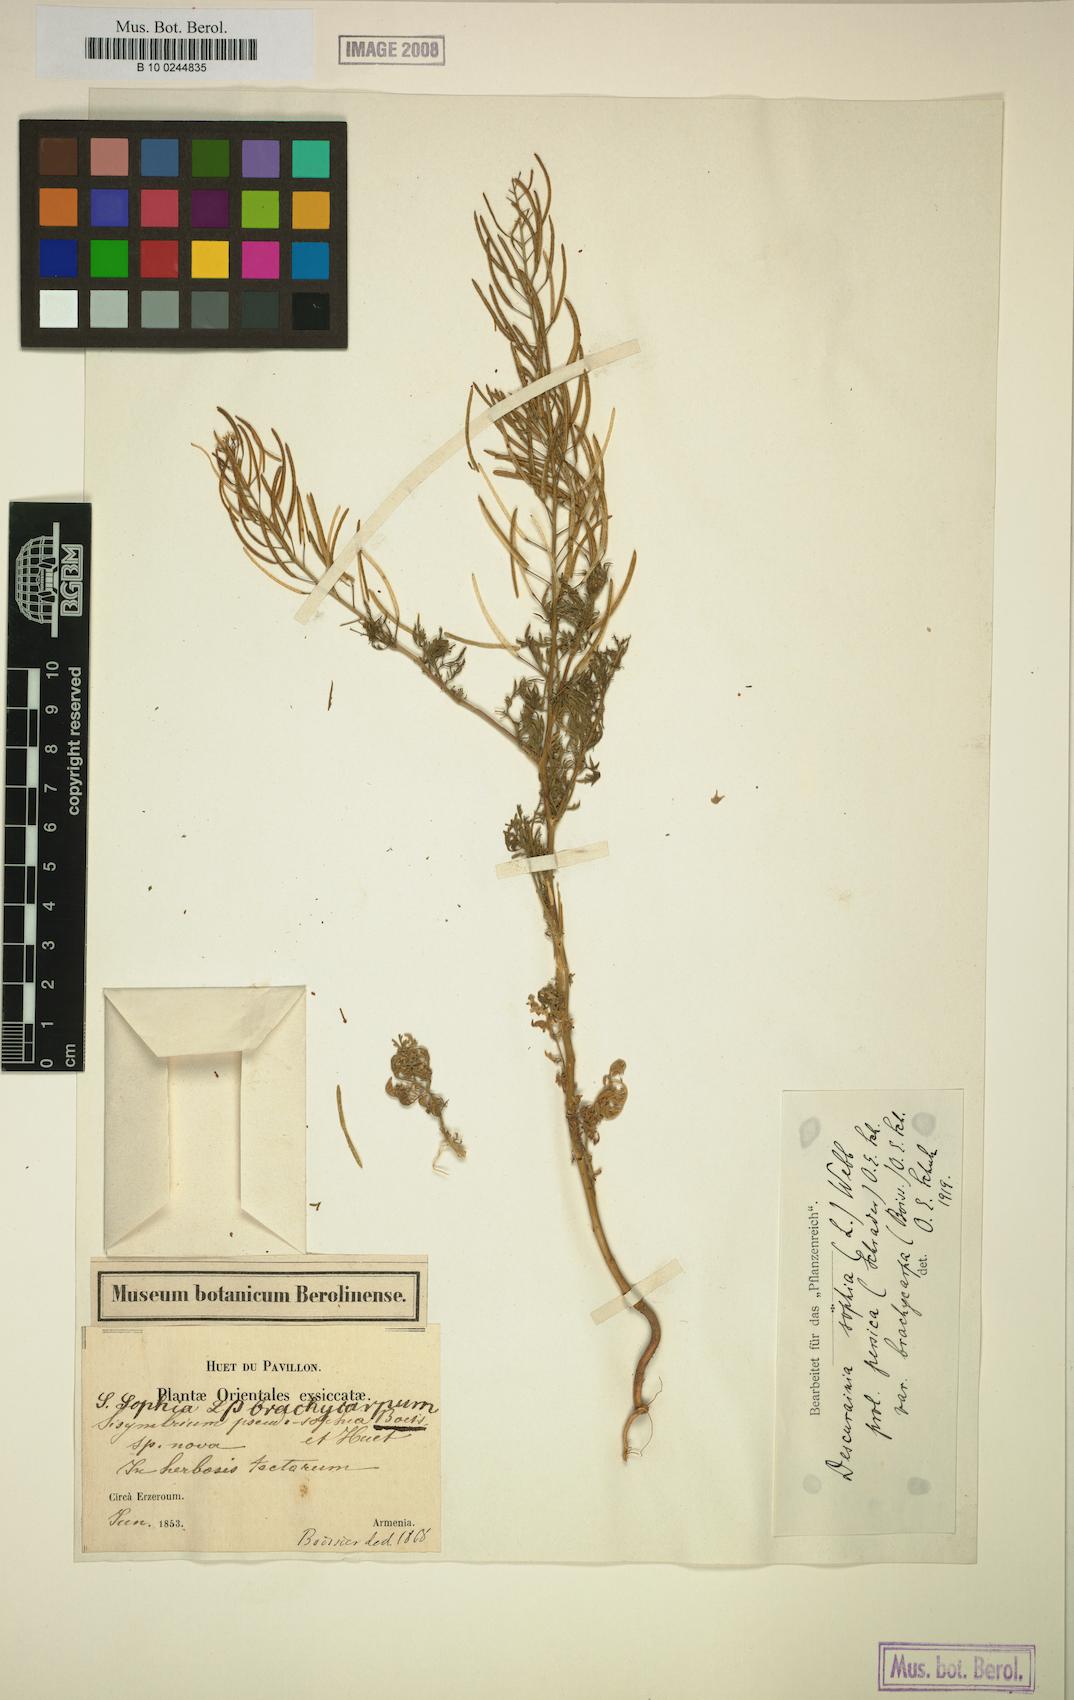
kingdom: Plantae
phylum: Tracheophyta
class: Magnoliopsida
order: Brassicales
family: Brassicaceae
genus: Descurainia
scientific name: Descurainia sophia
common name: Flixweed
